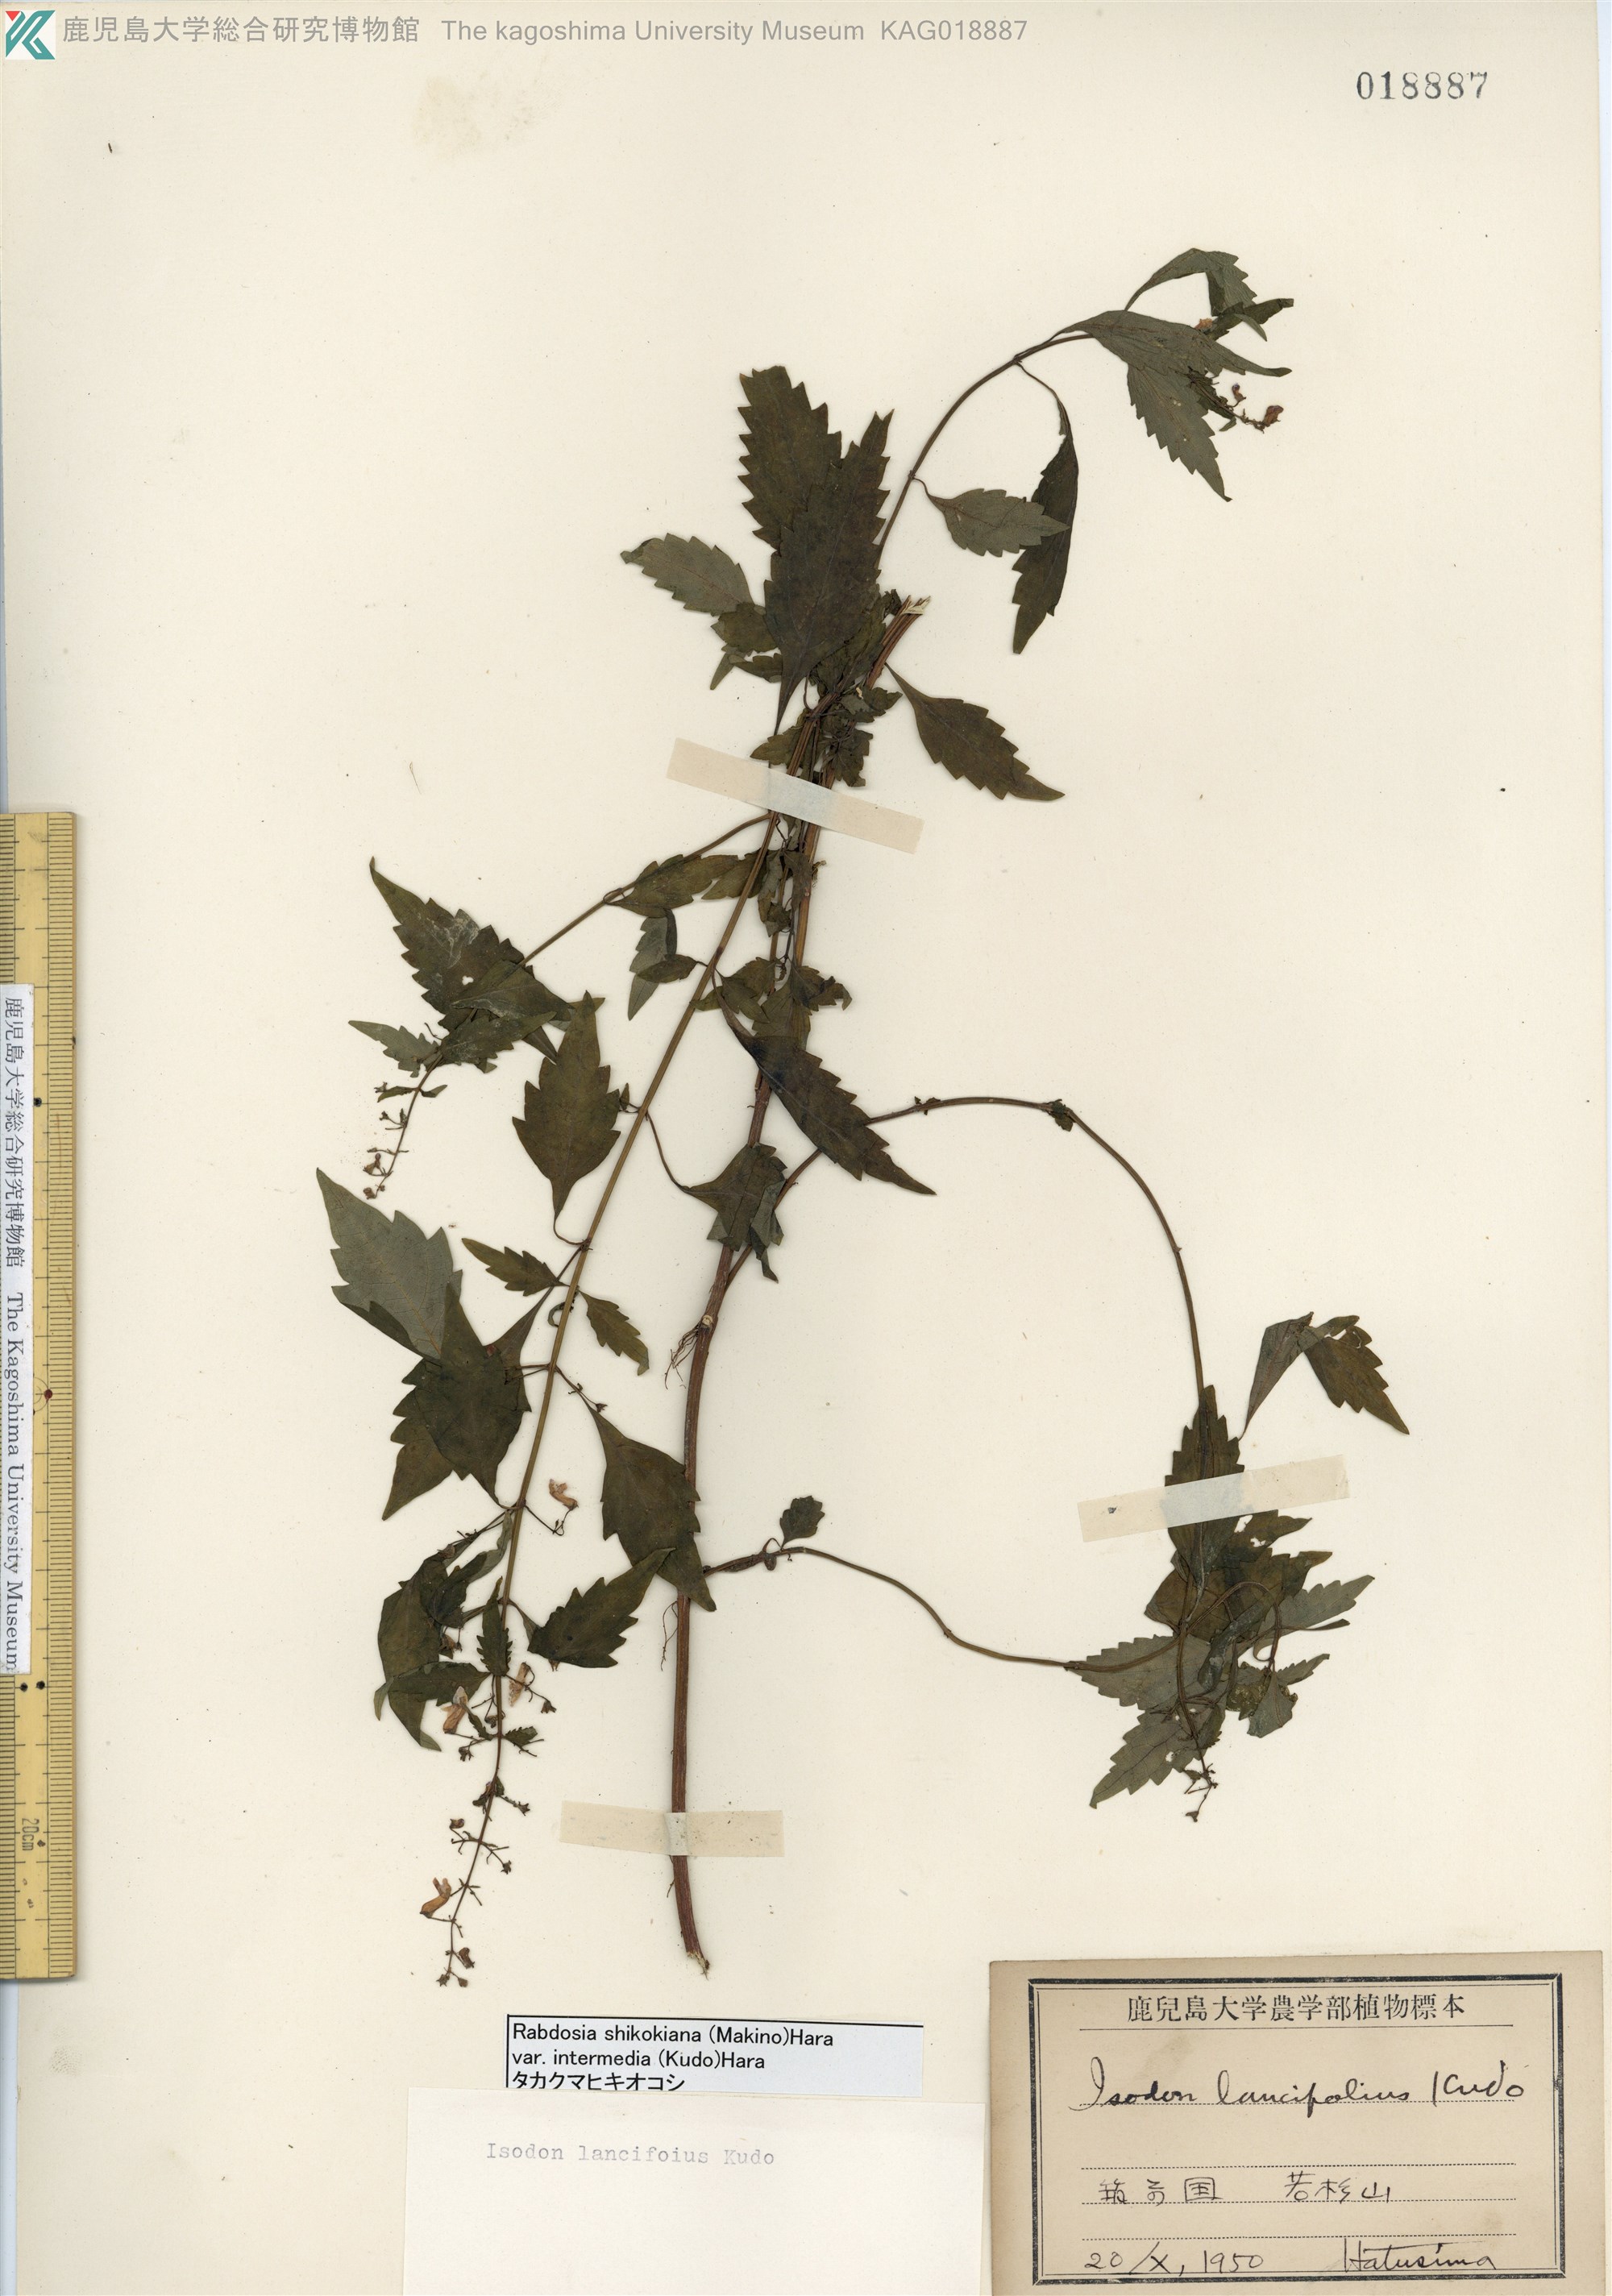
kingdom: Plantae
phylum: Tracheophyta
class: Magnoliopsida
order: Lamiales
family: Lamiaceae
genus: Isodon
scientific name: Isodon shikokianus
